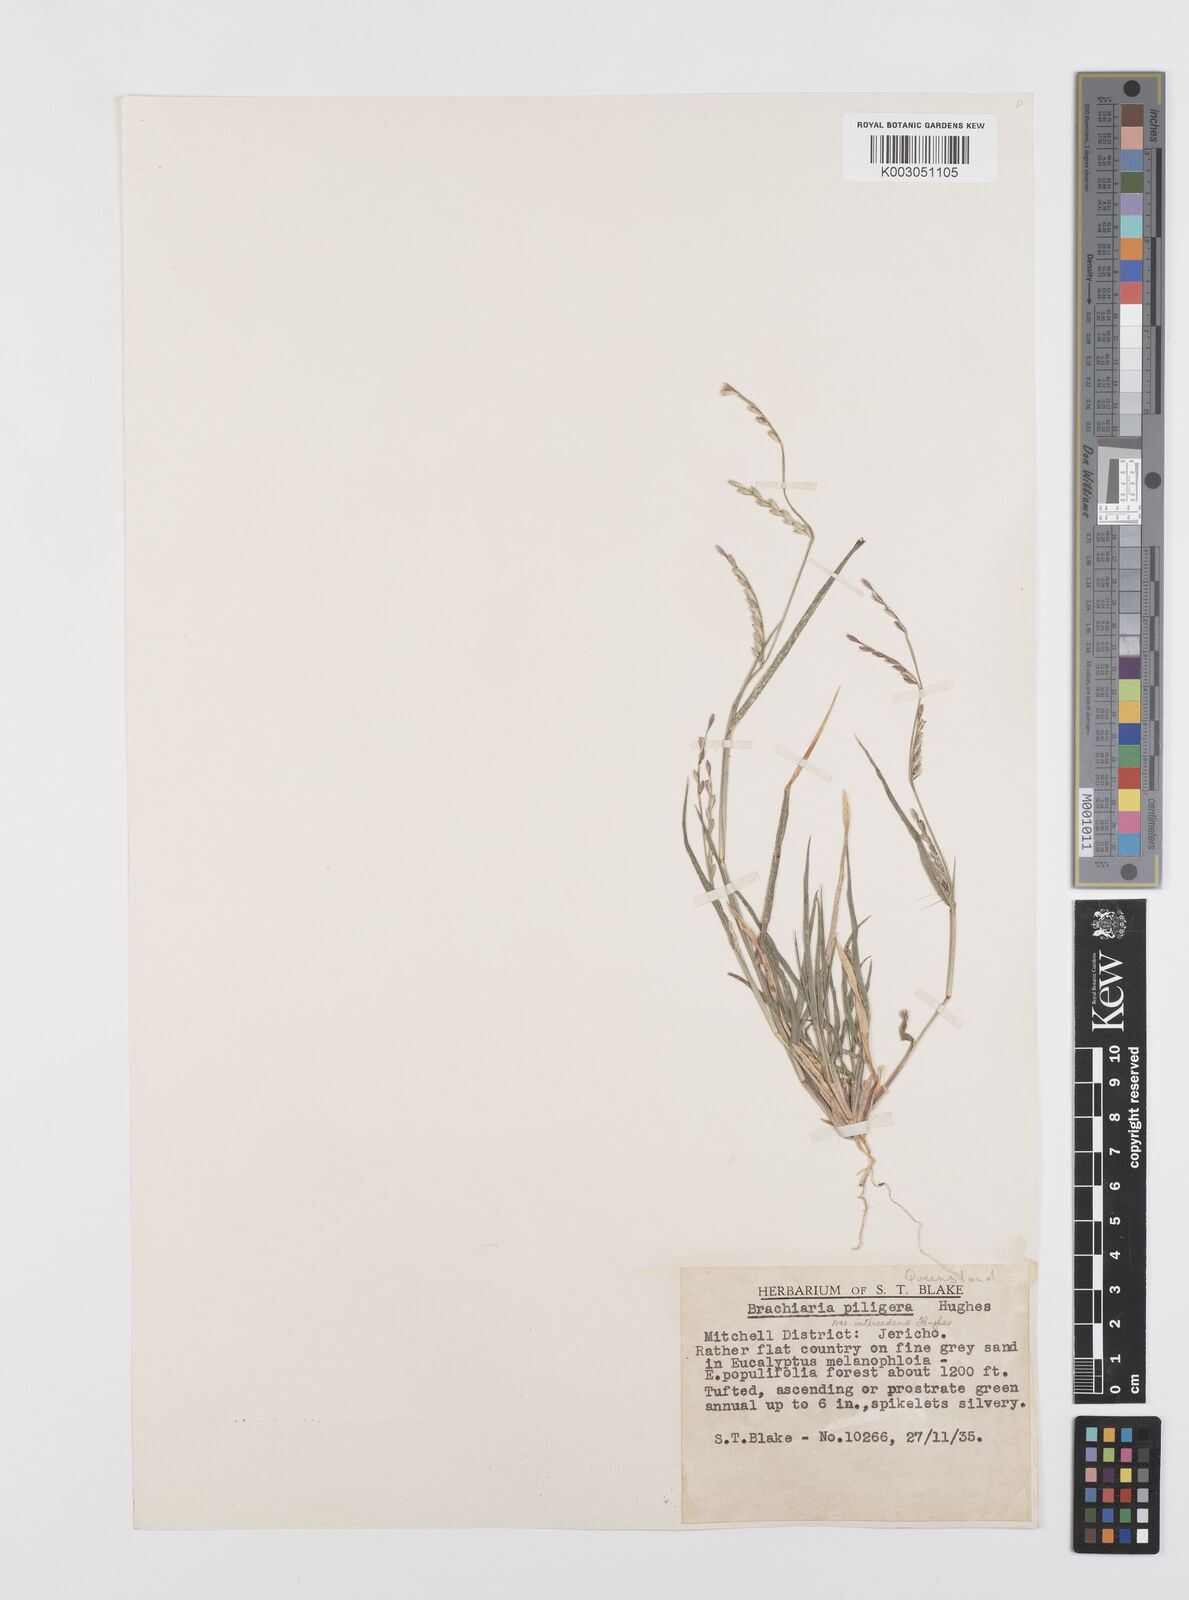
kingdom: Plantae
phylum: Tracheophyta
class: Liliopsida
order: Poales
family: Poaceae
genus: Urochloa
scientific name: Urochloa piligera
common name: Wattle signalgrass
